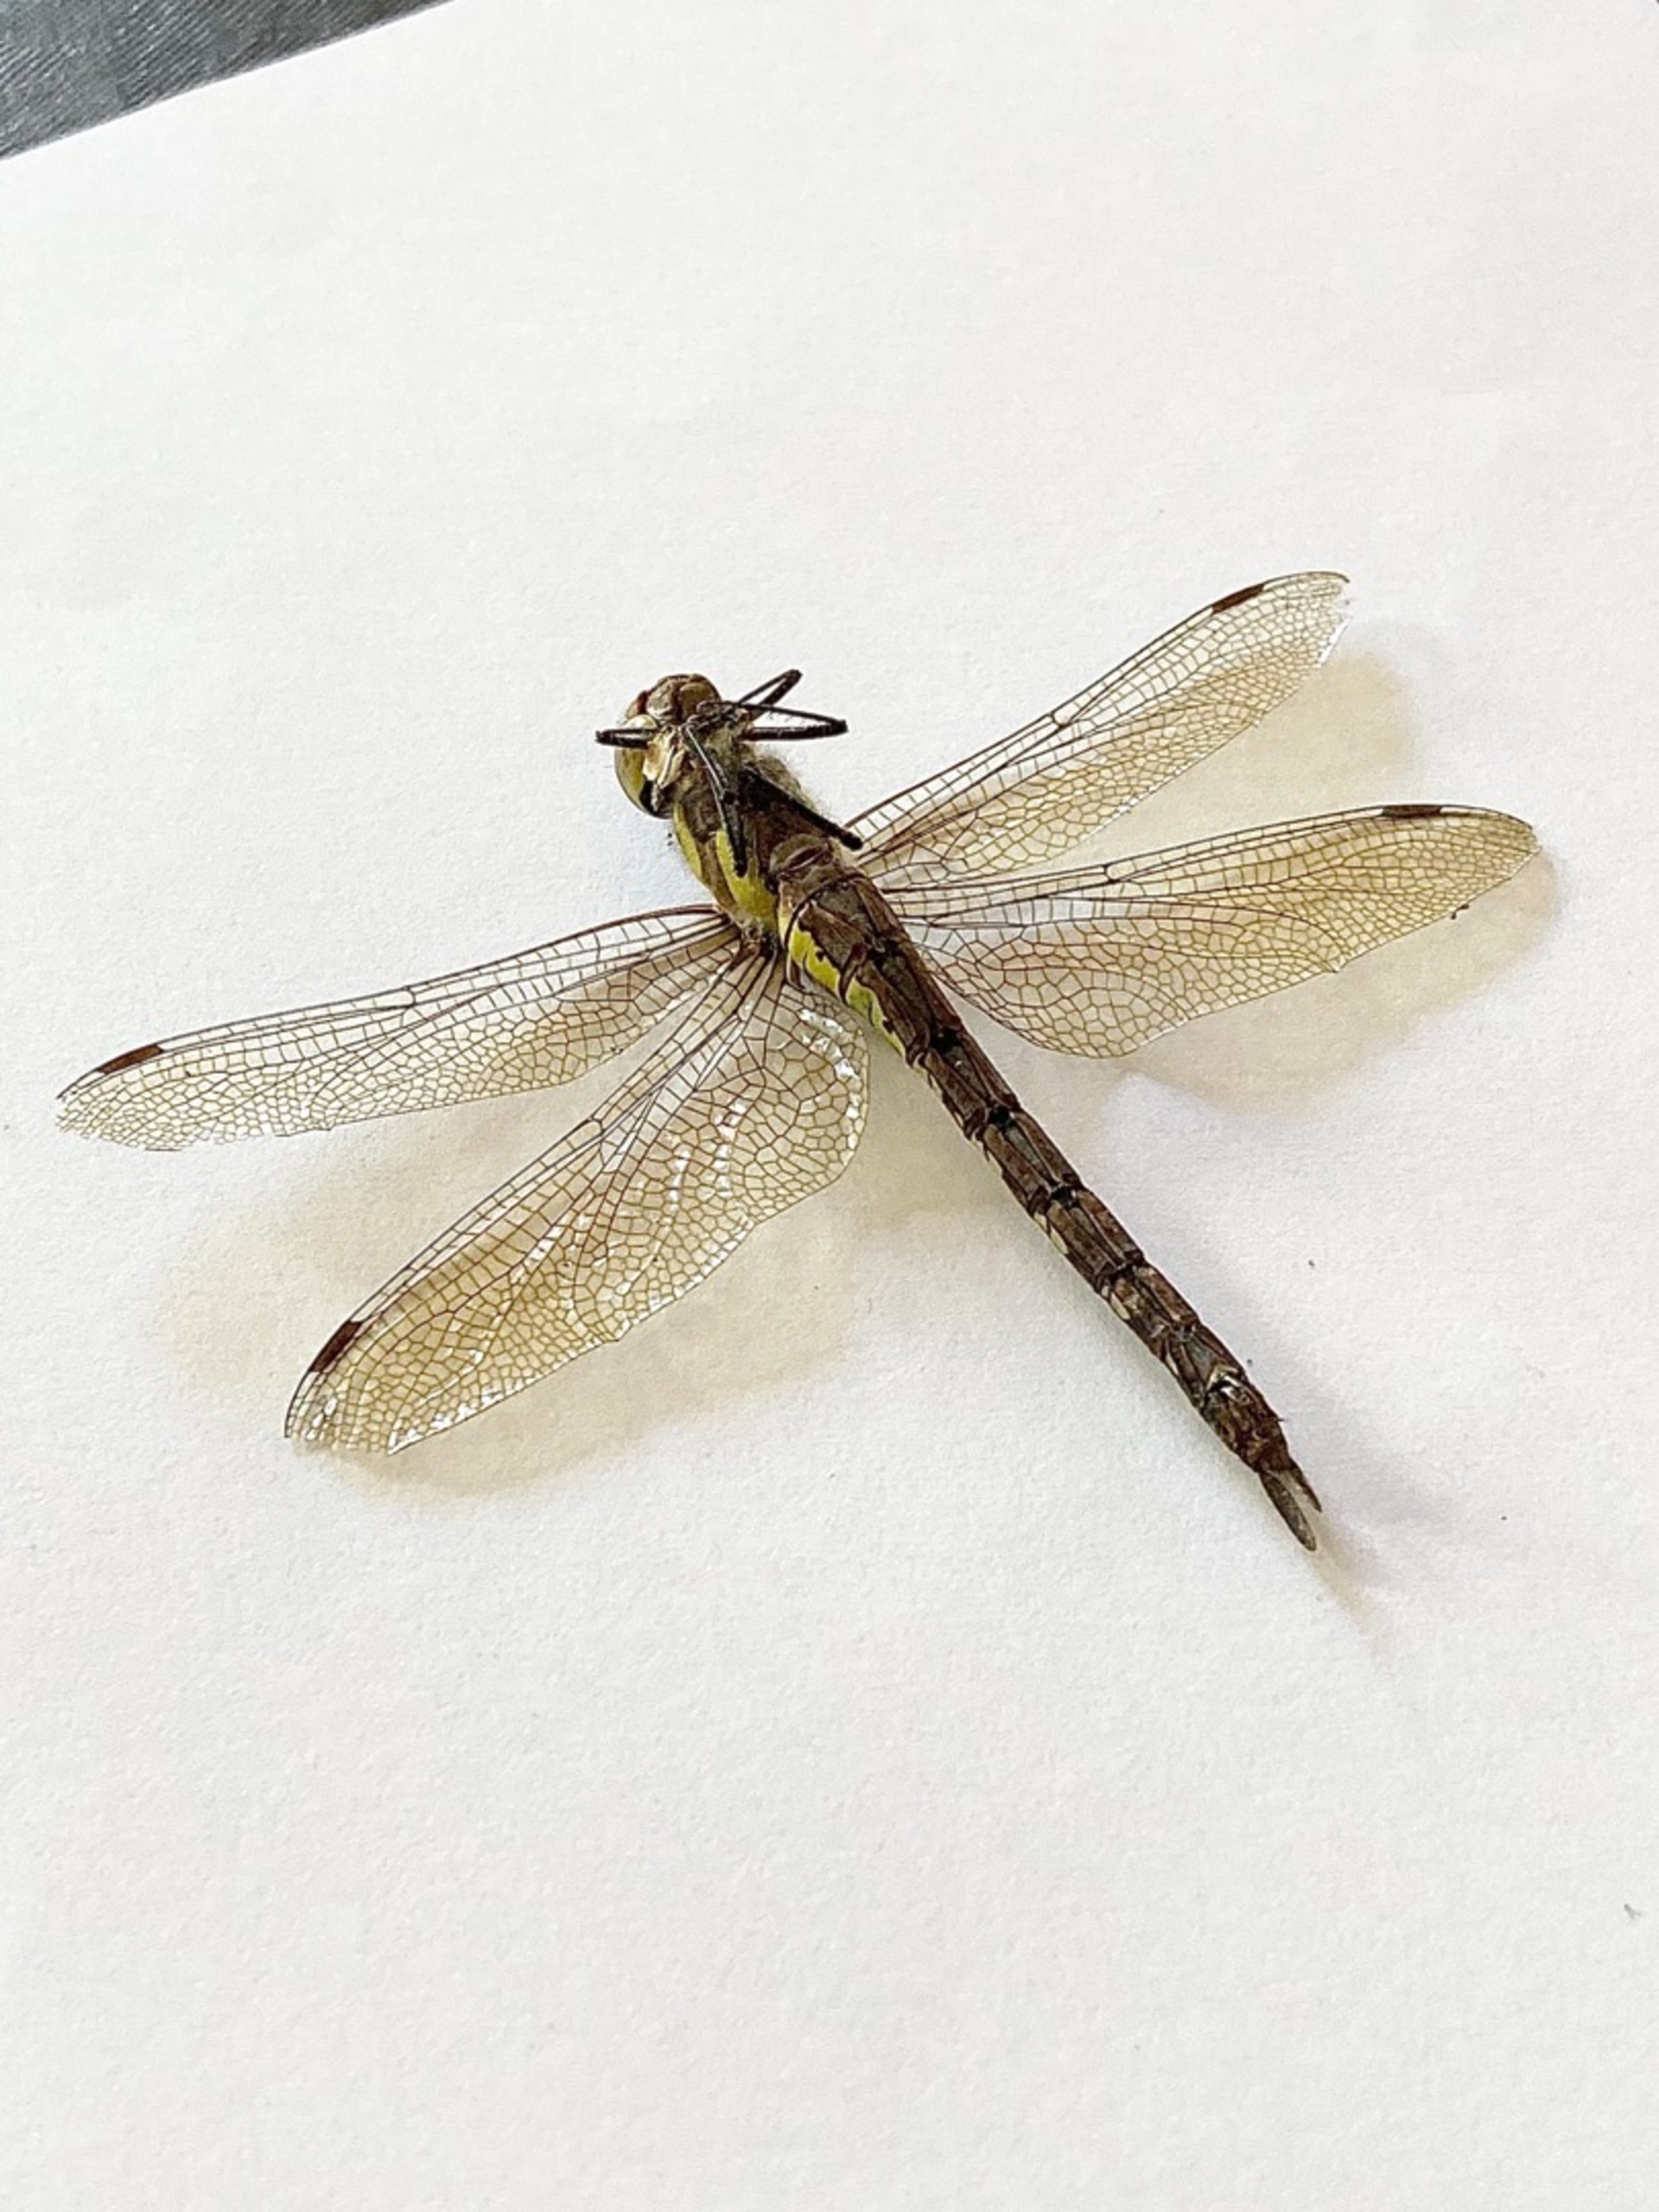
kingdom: Animalia
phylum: Arthropoda
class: Insecta
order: Odonata
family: Aeshnidae
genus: Aeshna
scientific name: Aeshna mixta
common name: Efterårs-mosaikguldsmed
